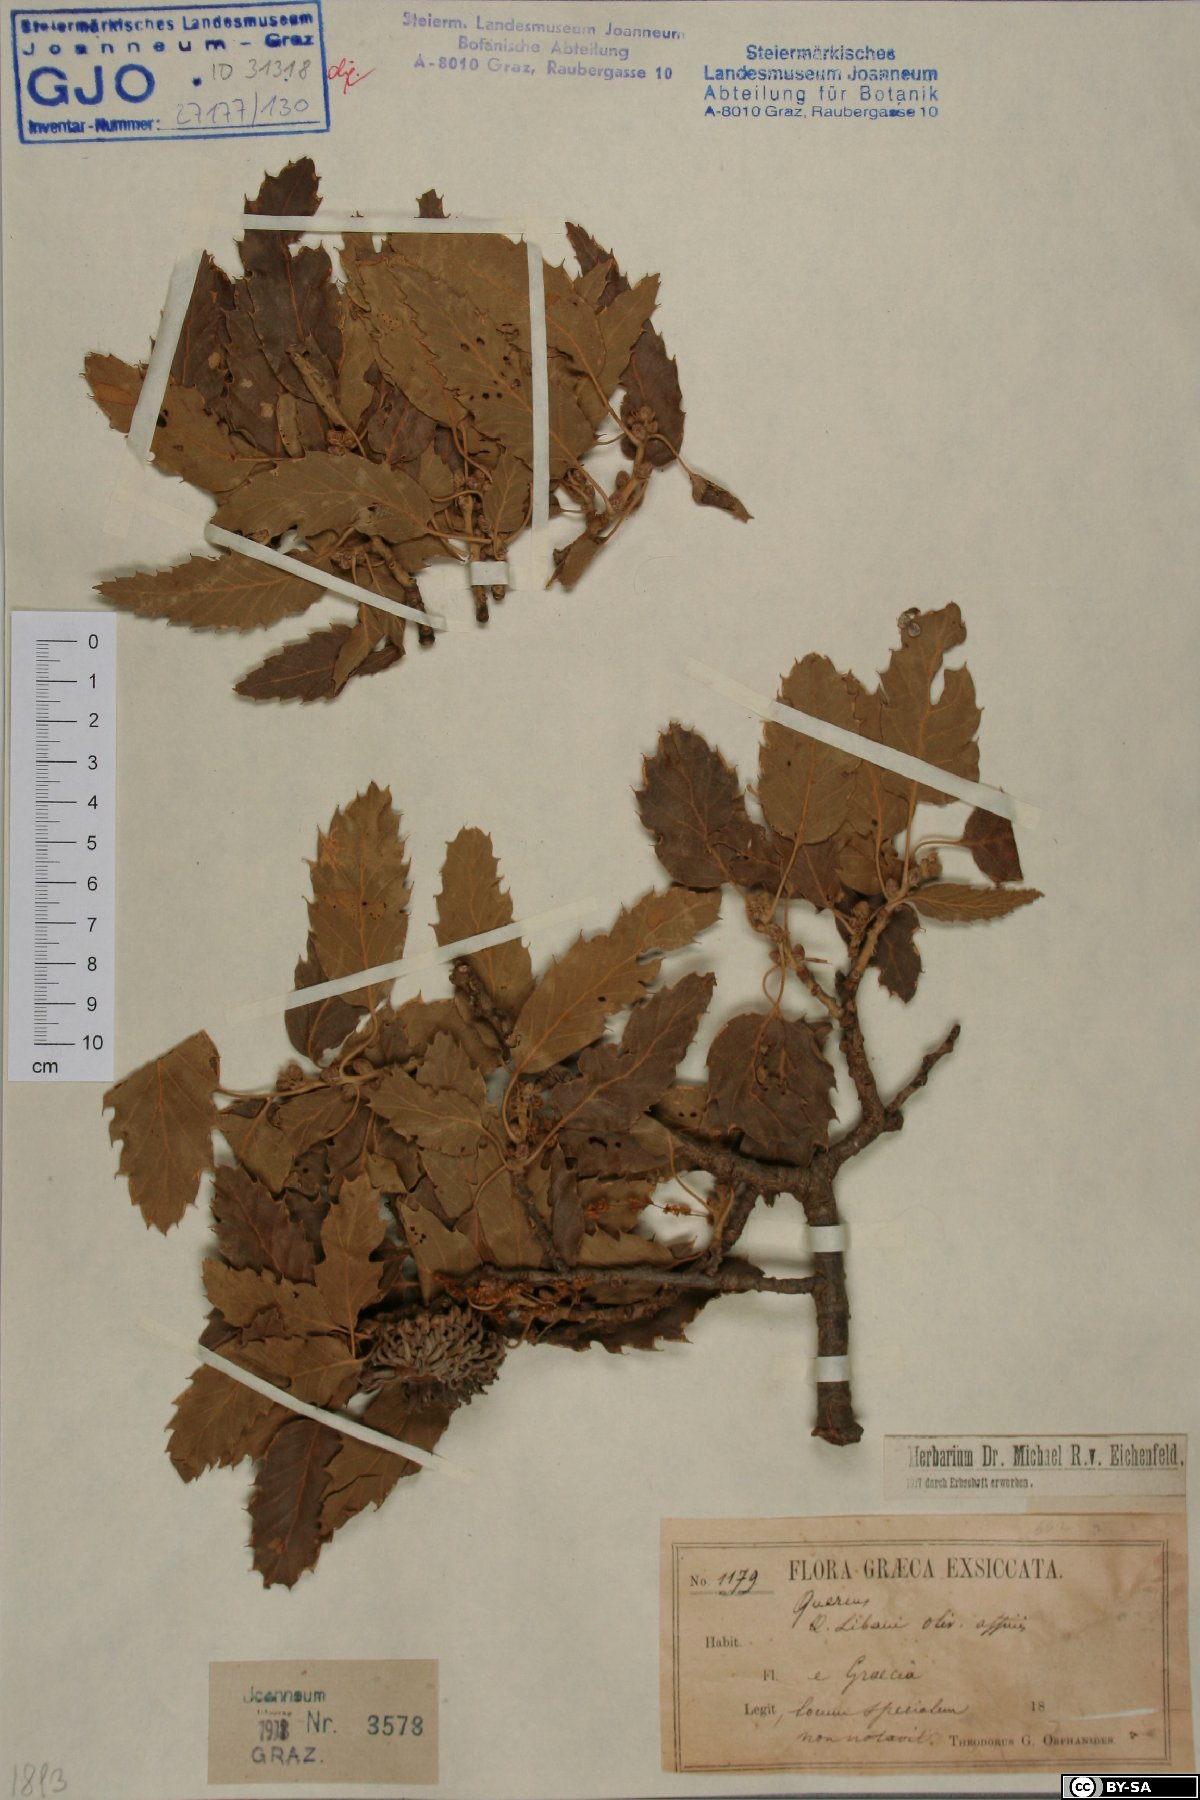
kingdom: Plantae
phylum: Tracheophyta
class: Magnoliopsida
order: Fagales
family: Fagaceae
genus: Quercus
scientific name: Quercus libani
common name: Lebanon oak
